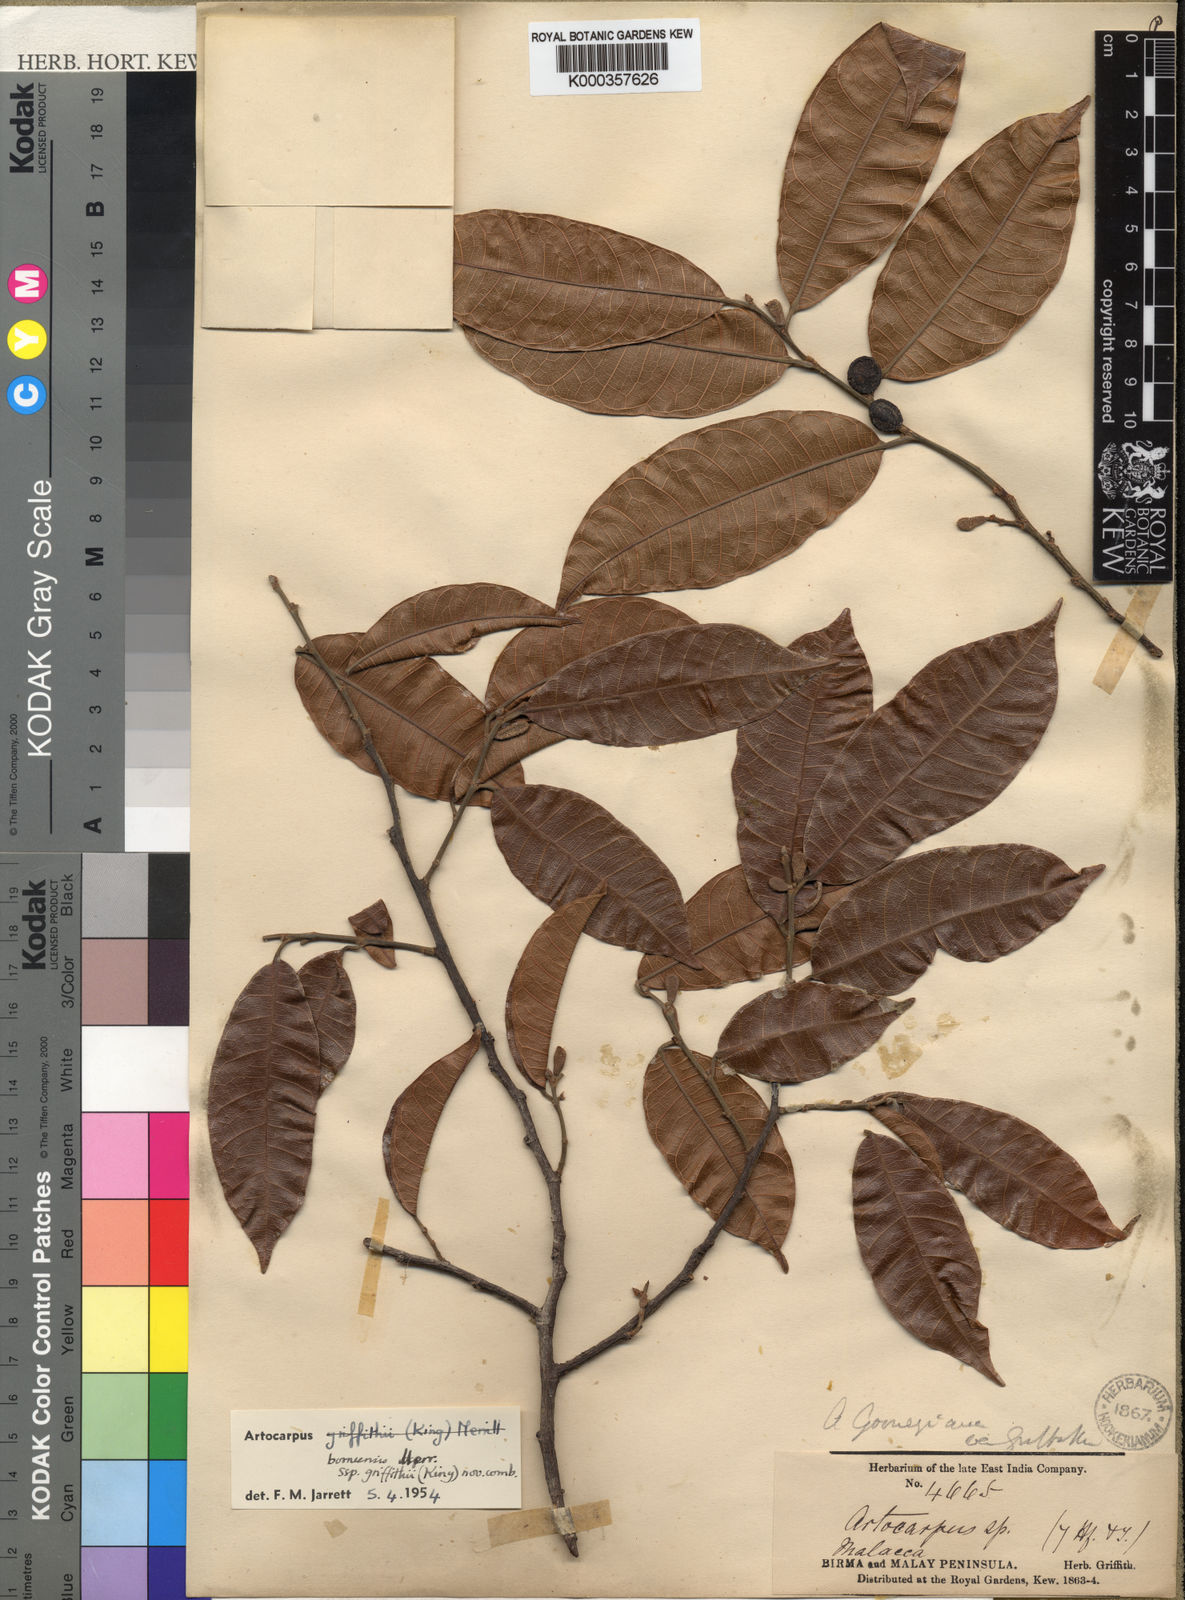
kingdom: Plantae
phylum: Tracheophyta
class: Magnoliopsida
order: Rosales
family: Moraceae
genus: Artocarpus
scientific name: Artocarpus lamellosus
